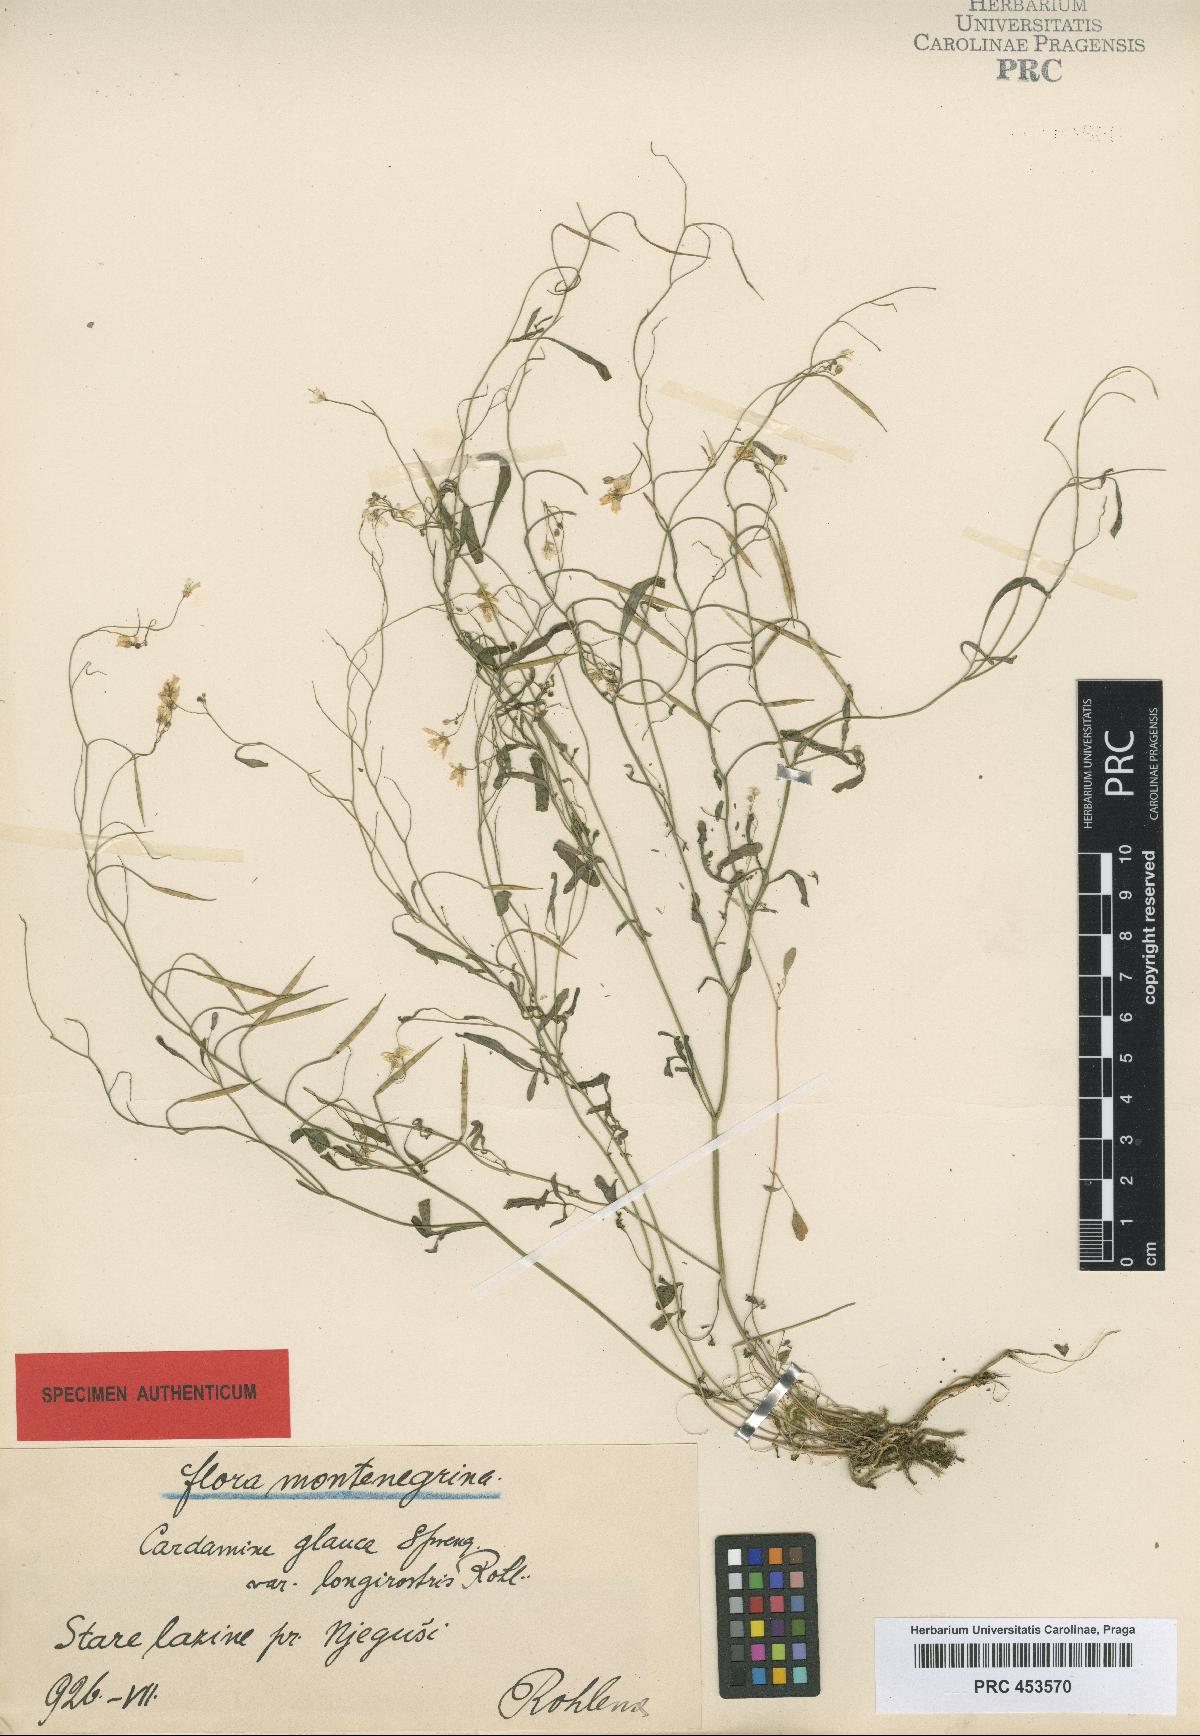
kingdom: Plantae
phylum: Tracheophyta
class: Magnoliopsida
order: Brassicales
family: Brassicaceae
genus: Cardamine
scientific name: Cardamine glauca
